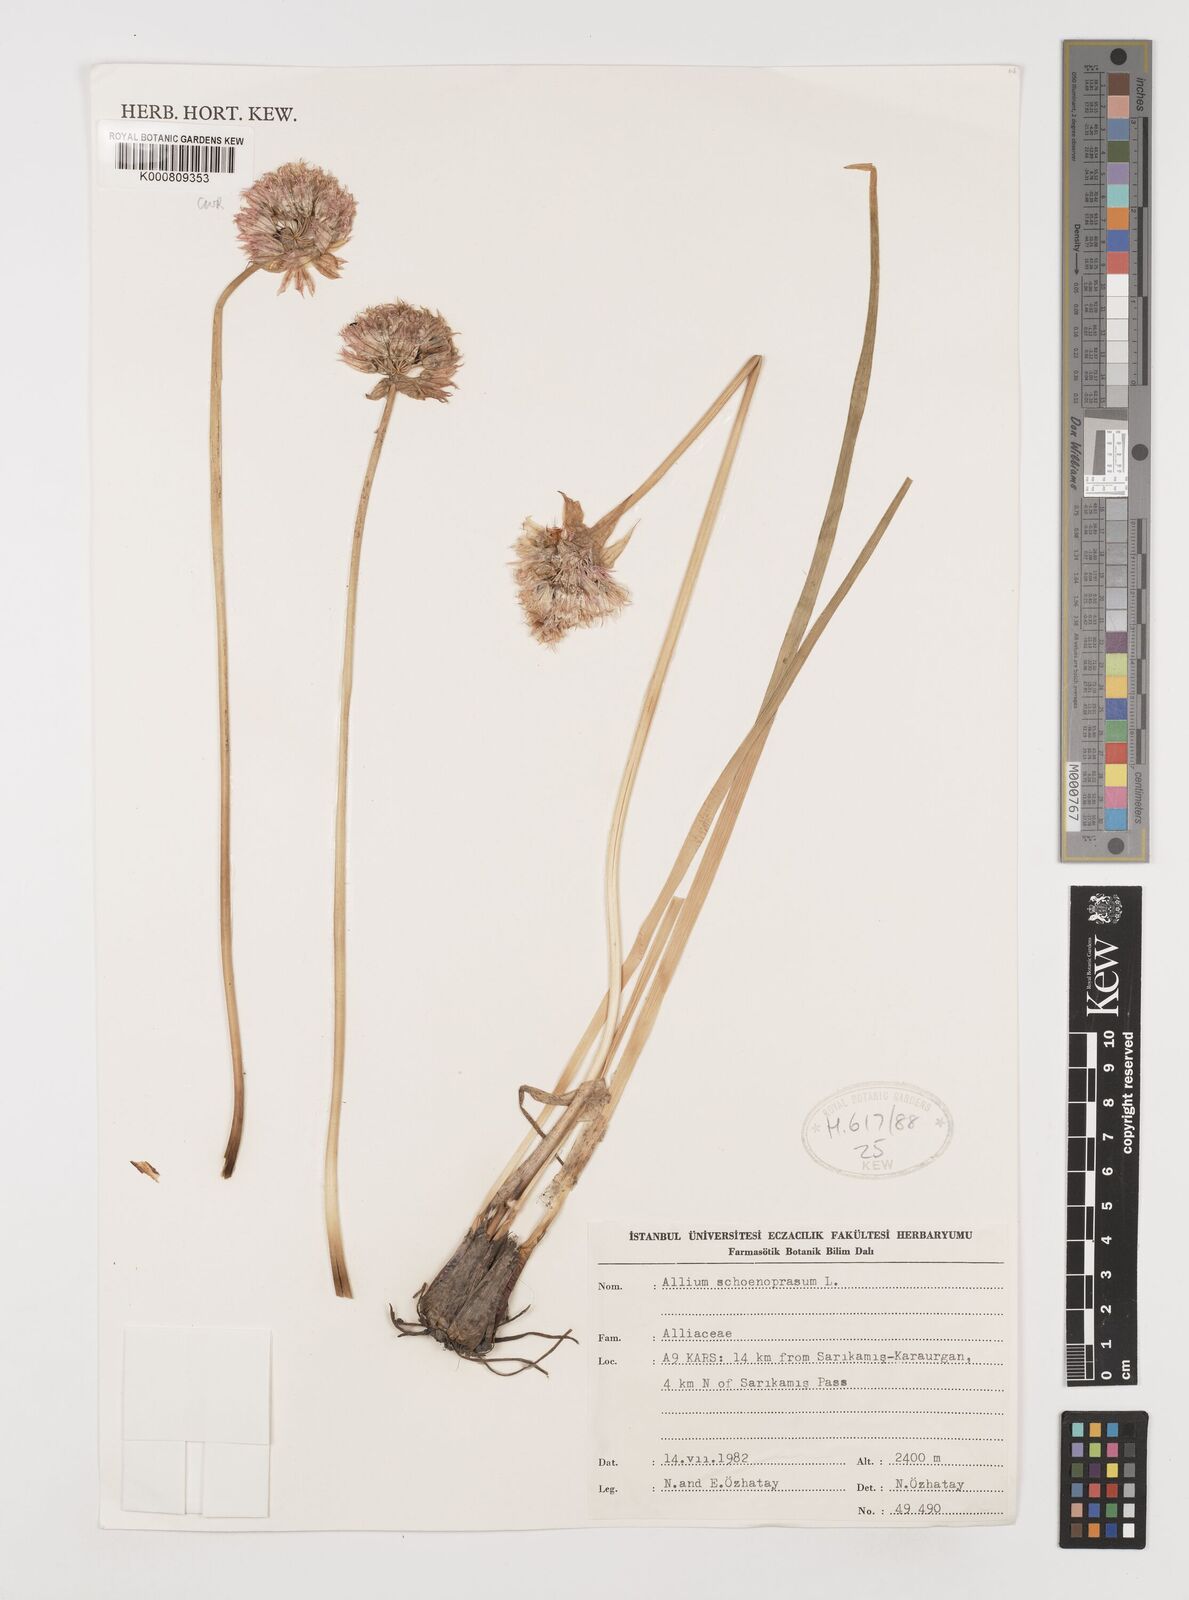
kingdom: Plantae
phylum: Tracheophyta
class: Liliopsida
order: Asparagales
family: Amaryllidaceae
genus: Allium
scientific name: Allium schoenoprasum
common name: Chives
